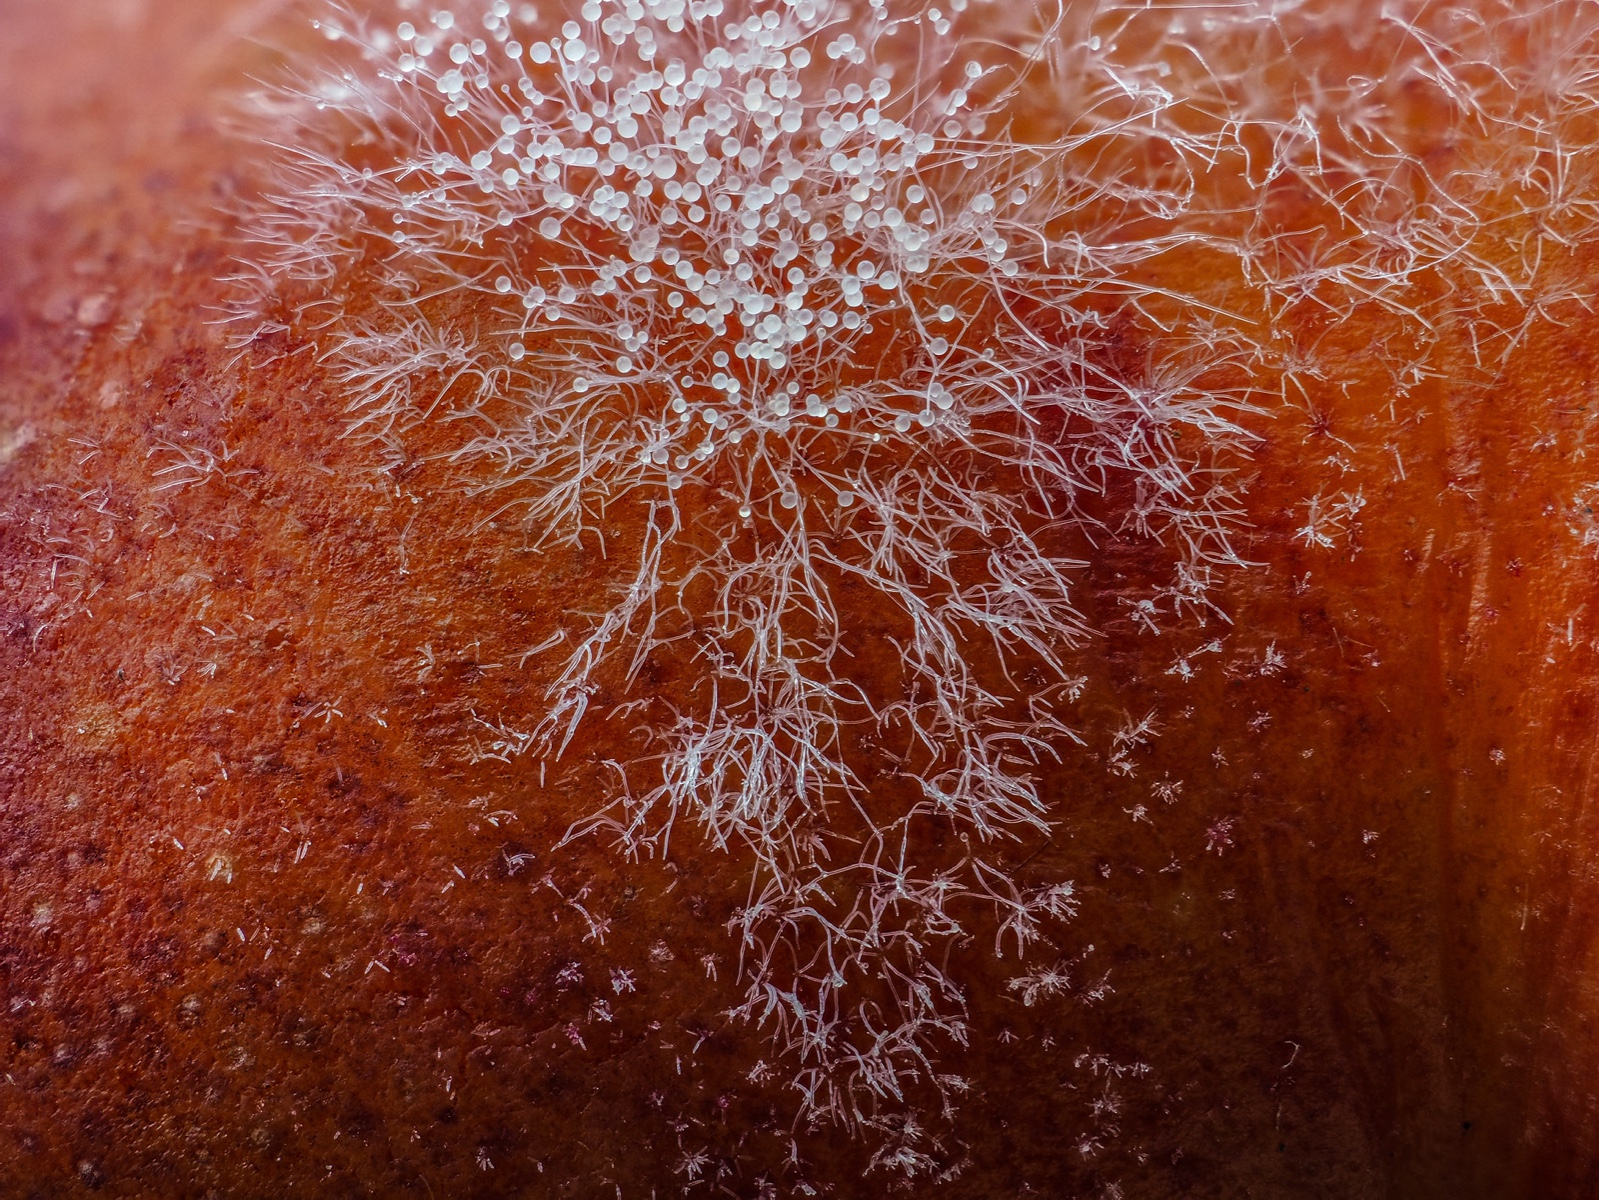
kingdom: Fungi
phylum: Mucoromycota
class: Mucoromycetes
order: Mucorales
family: Rhizopodaceae
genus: Rhizopus
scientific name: Rhizopus stolonifer
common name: almindelig løbenål
